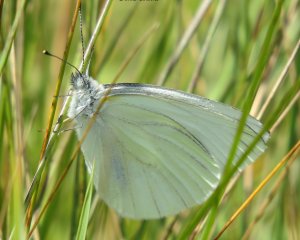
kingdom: Animalia
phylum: Arthropoda
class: Insecta
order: Lepidoptera
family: Pieridae
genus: Pieris
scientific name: Pieris oleracea
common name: Mustard White
